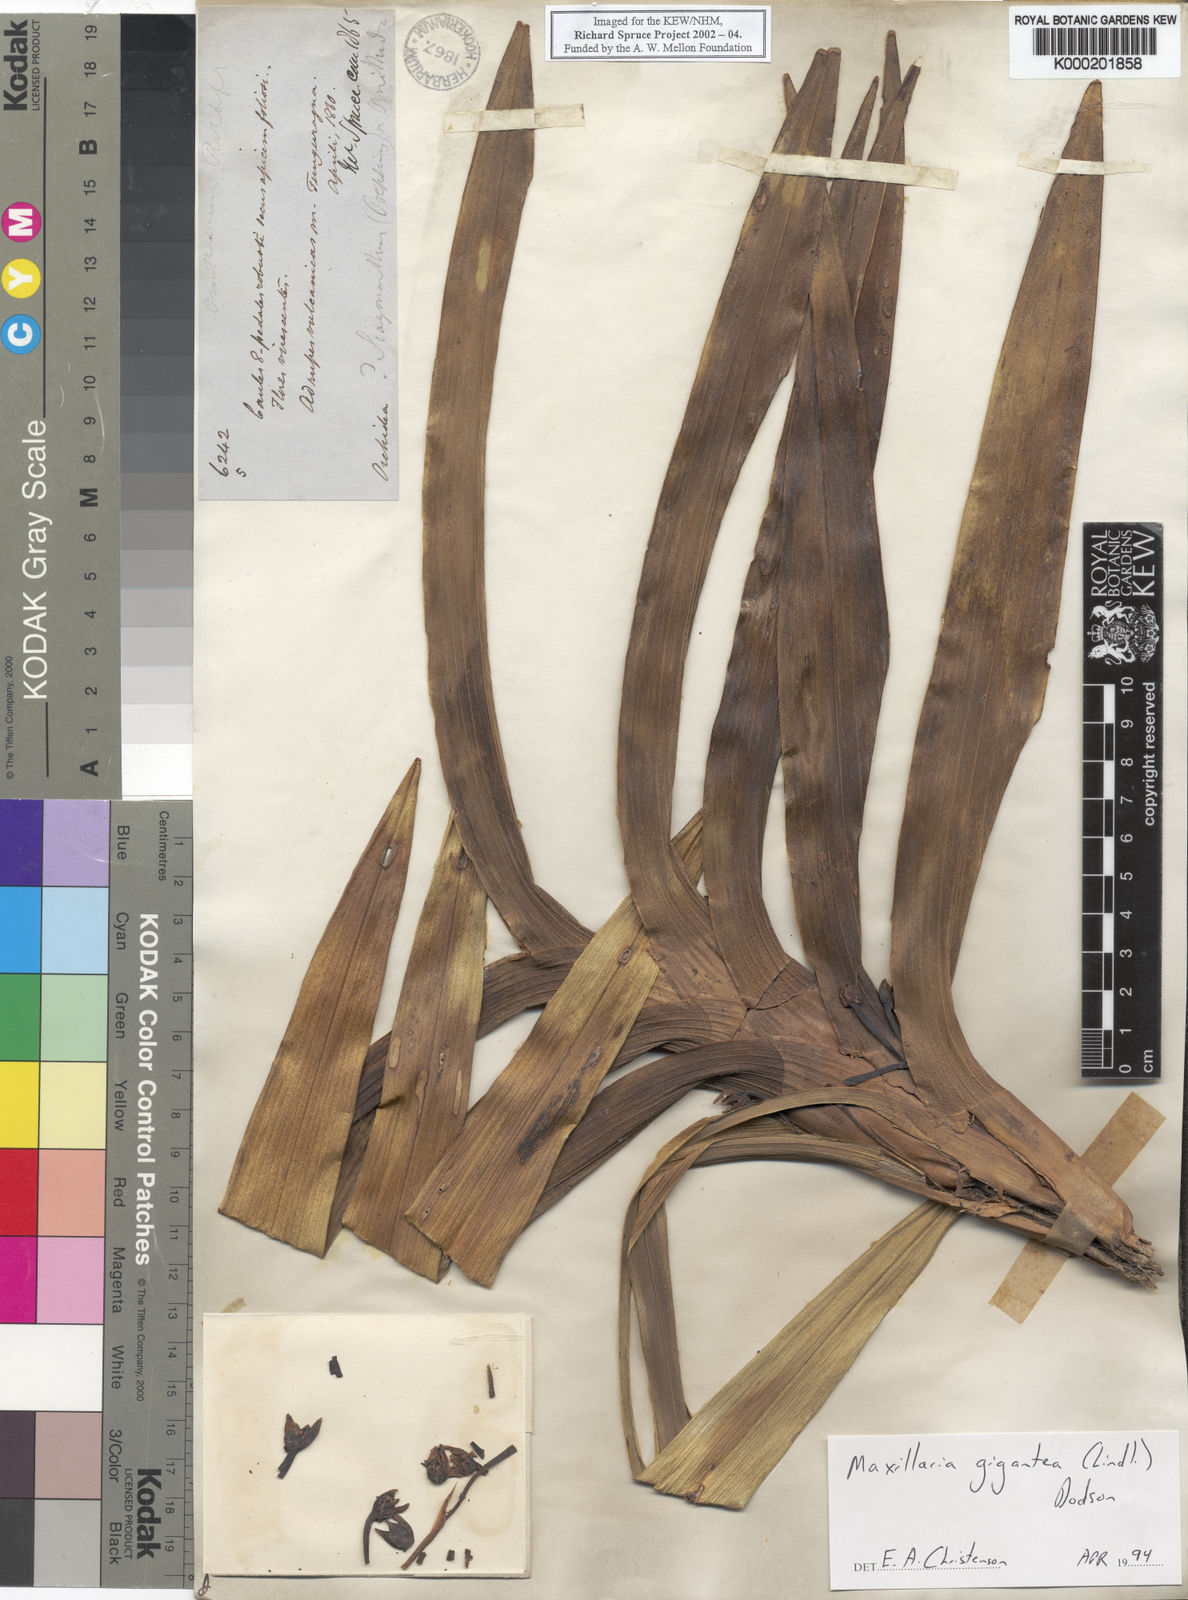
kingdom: Plantae
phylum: Tracheophyta
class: Liliopsida
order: Asparagales
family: Orchidaceae
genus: Maxillaria
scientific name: Maxillaria cordyline
